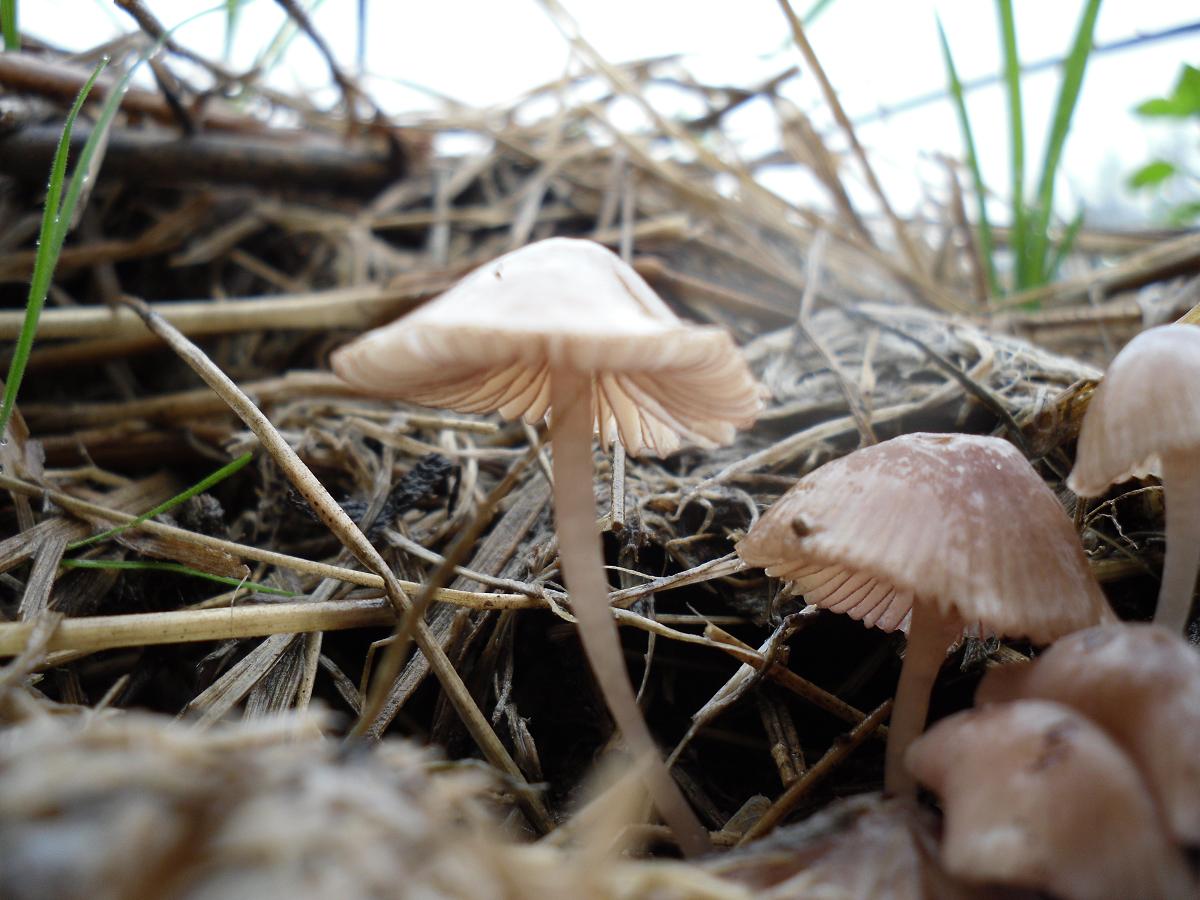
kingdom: Fungi
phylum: Basidiomycota
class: Agaricomycetes
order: Agaricales
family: Mycenaceae
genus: Mycena
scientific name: Mycena rubromarginata
